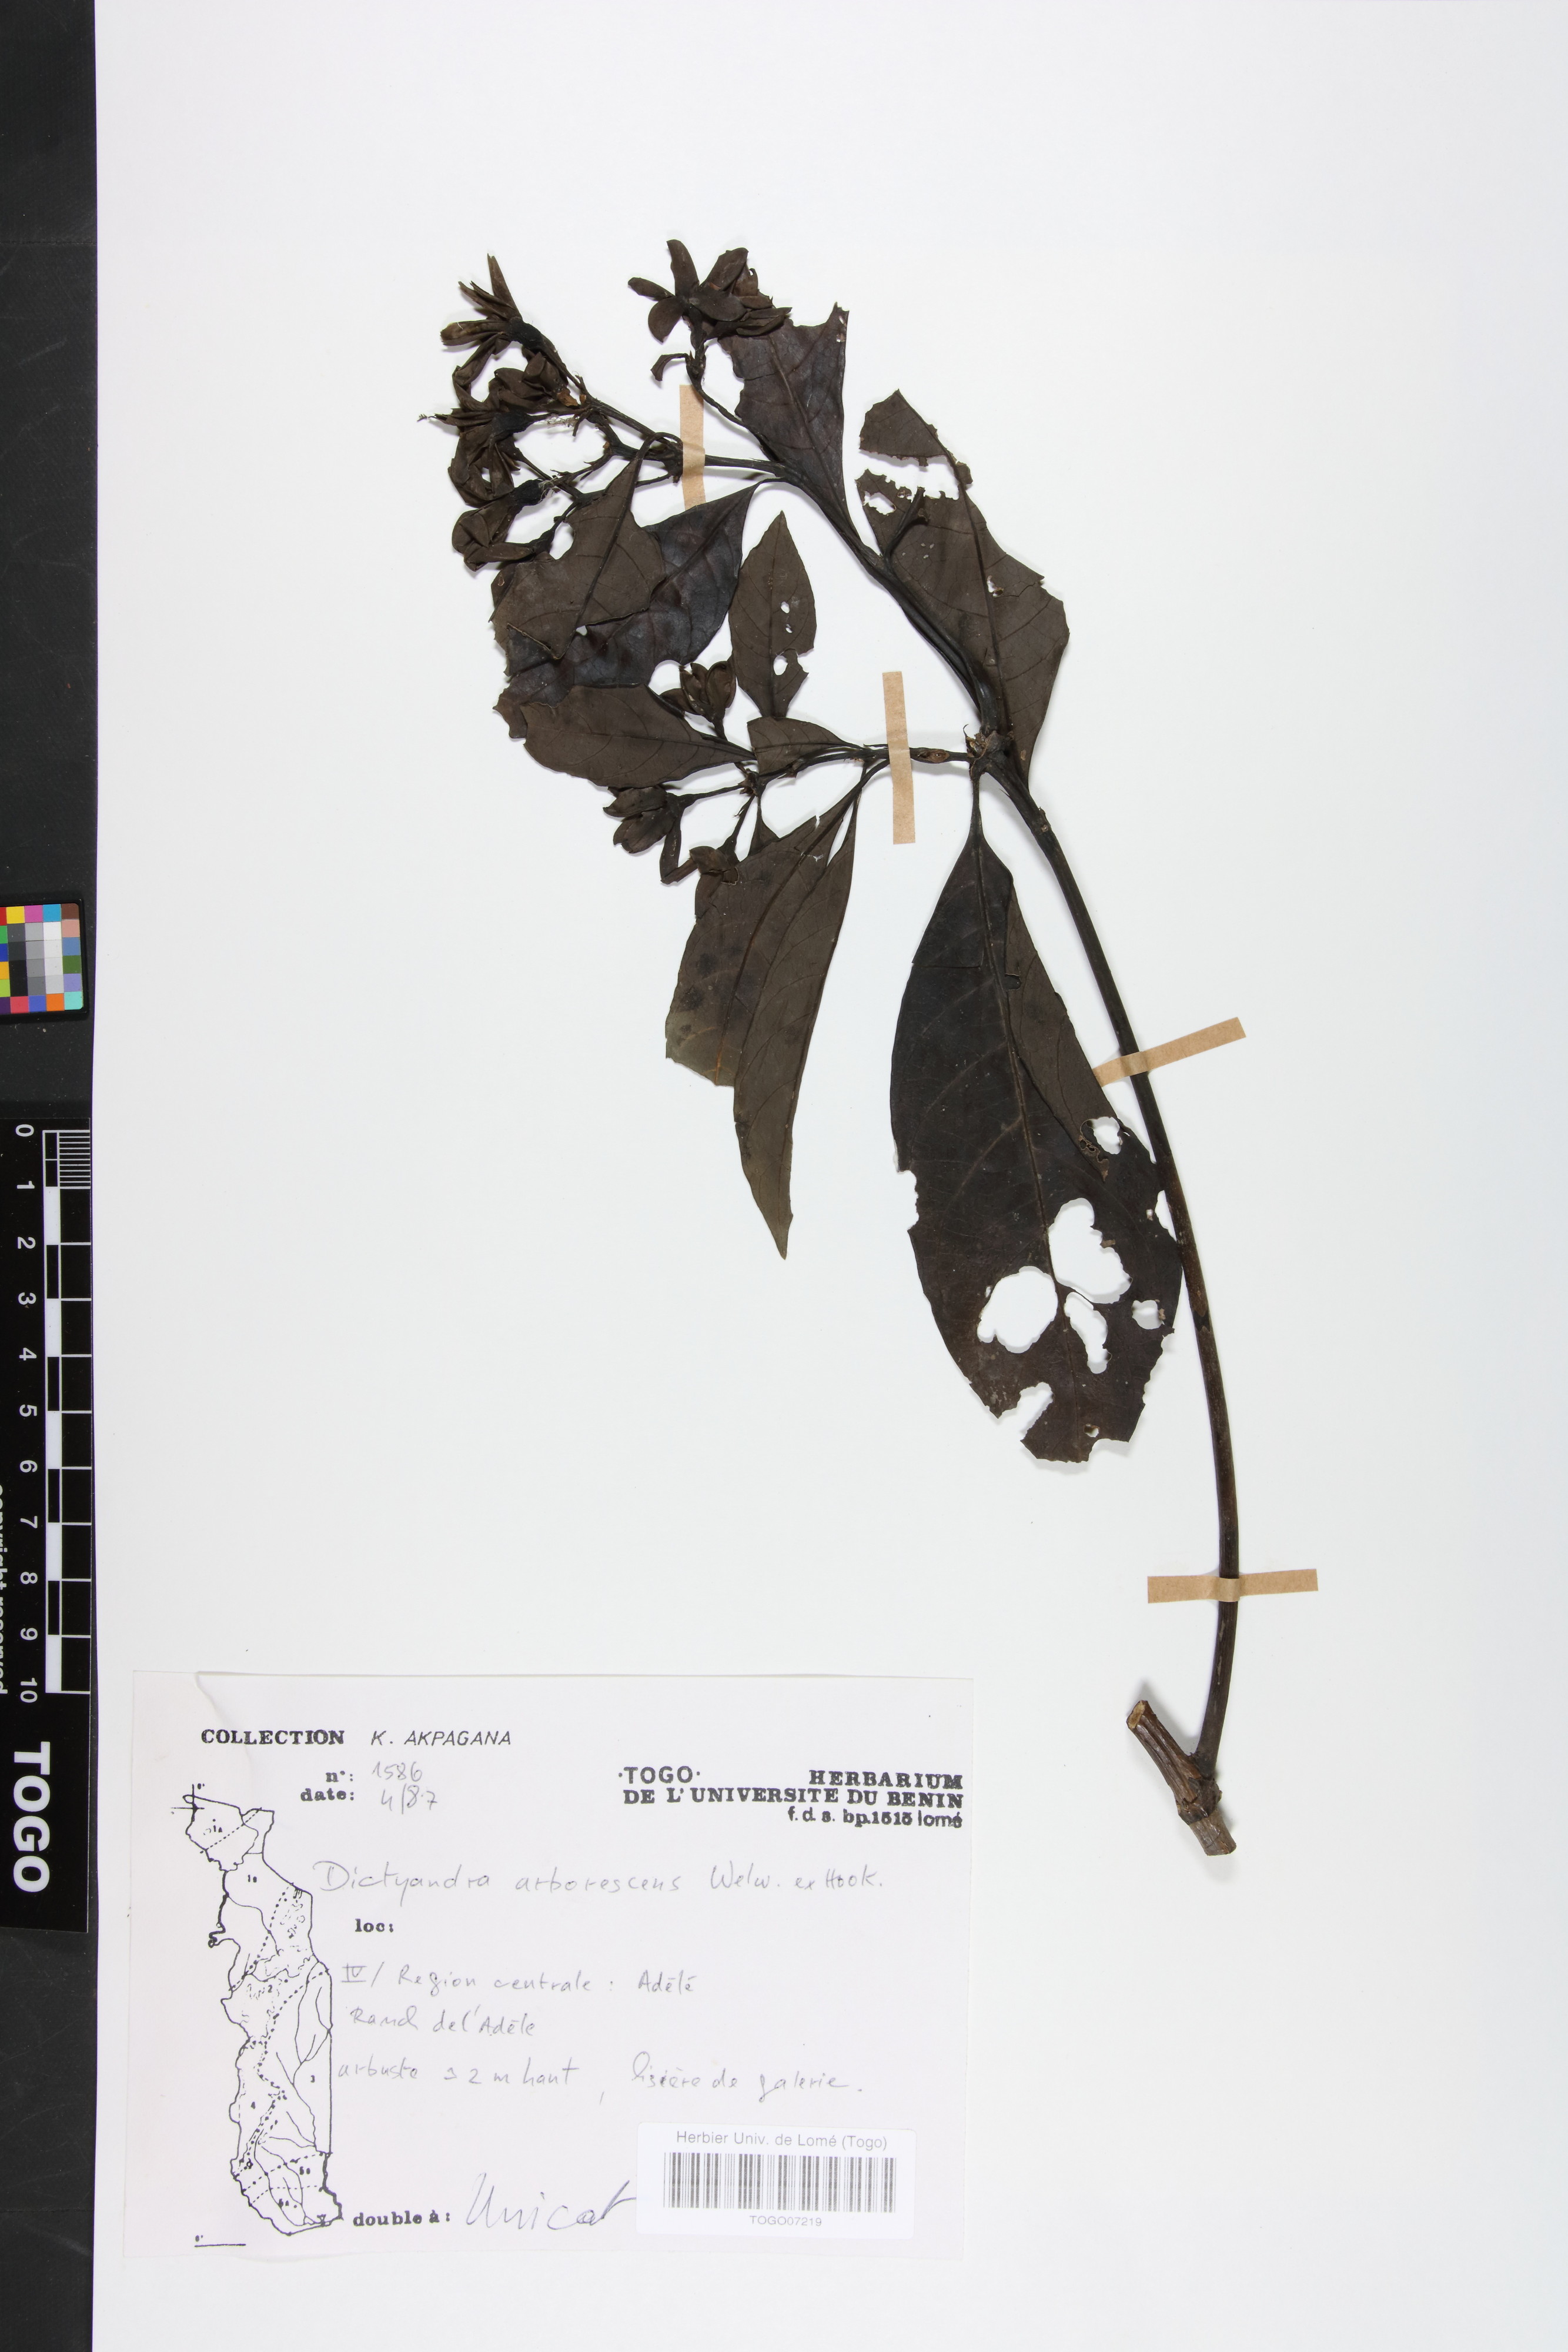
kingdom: Plantae
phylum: Tracheophyta
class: Magnoliopsida
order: Gentianales
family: Rubiaceae
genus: Leptactina
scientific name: Leptactina arborescens
